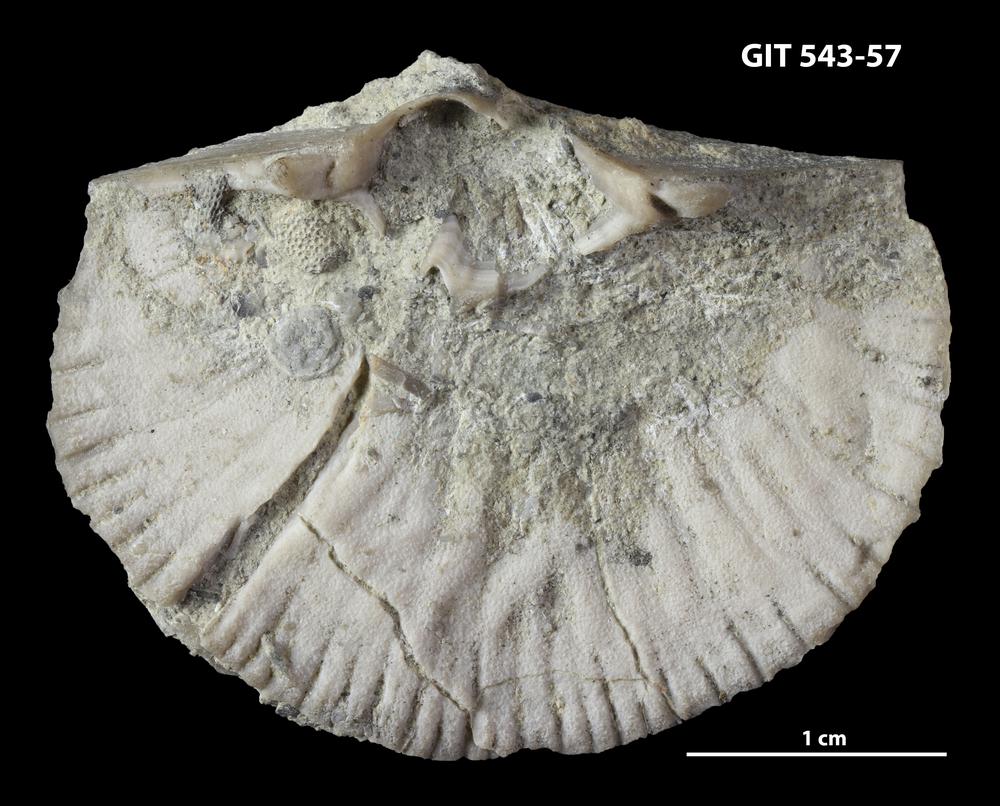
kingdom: Animalia
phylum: Brachiopoda
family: Gonambonitidae
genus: Estlandia
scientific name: Estlandia hispida
